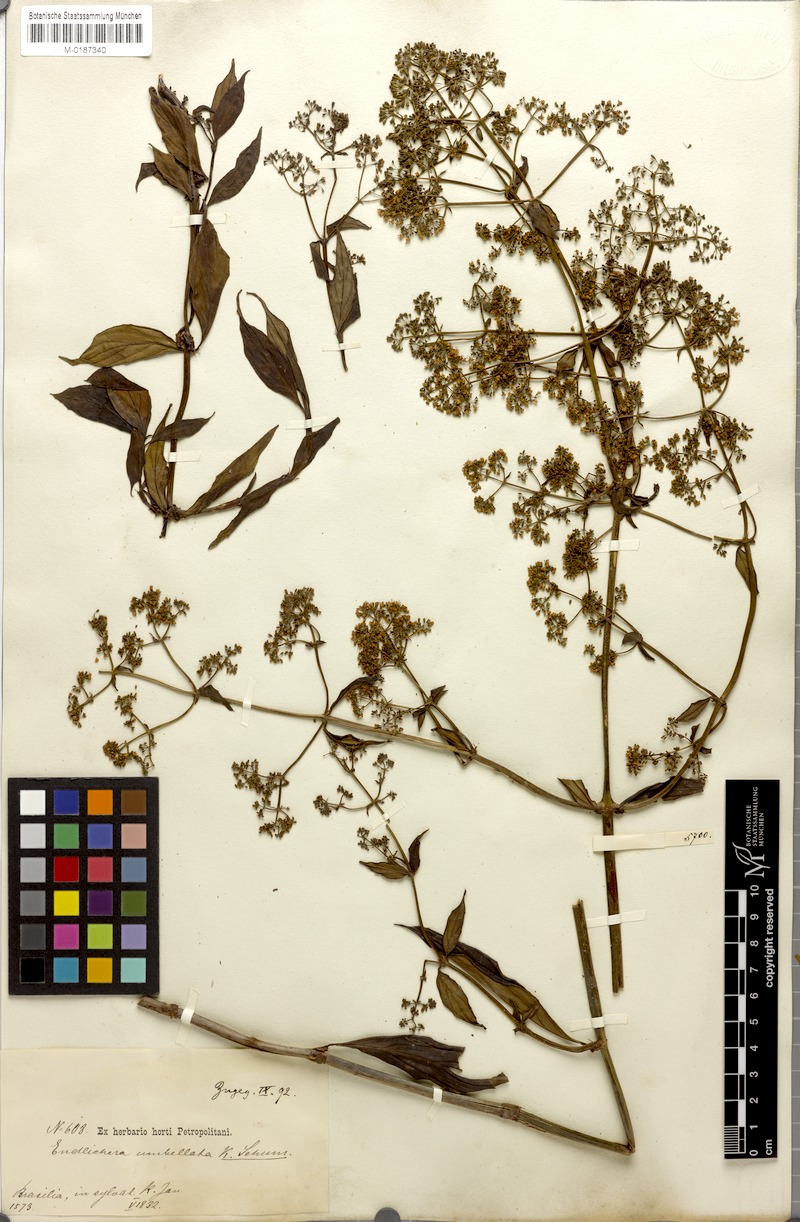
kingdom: Plantae
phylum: Tracheophyta
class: Magnoliopsida
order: Gentianales
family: Rubiaceae
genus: Emmeorhiza
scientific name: Emmeorhiza umbellata
